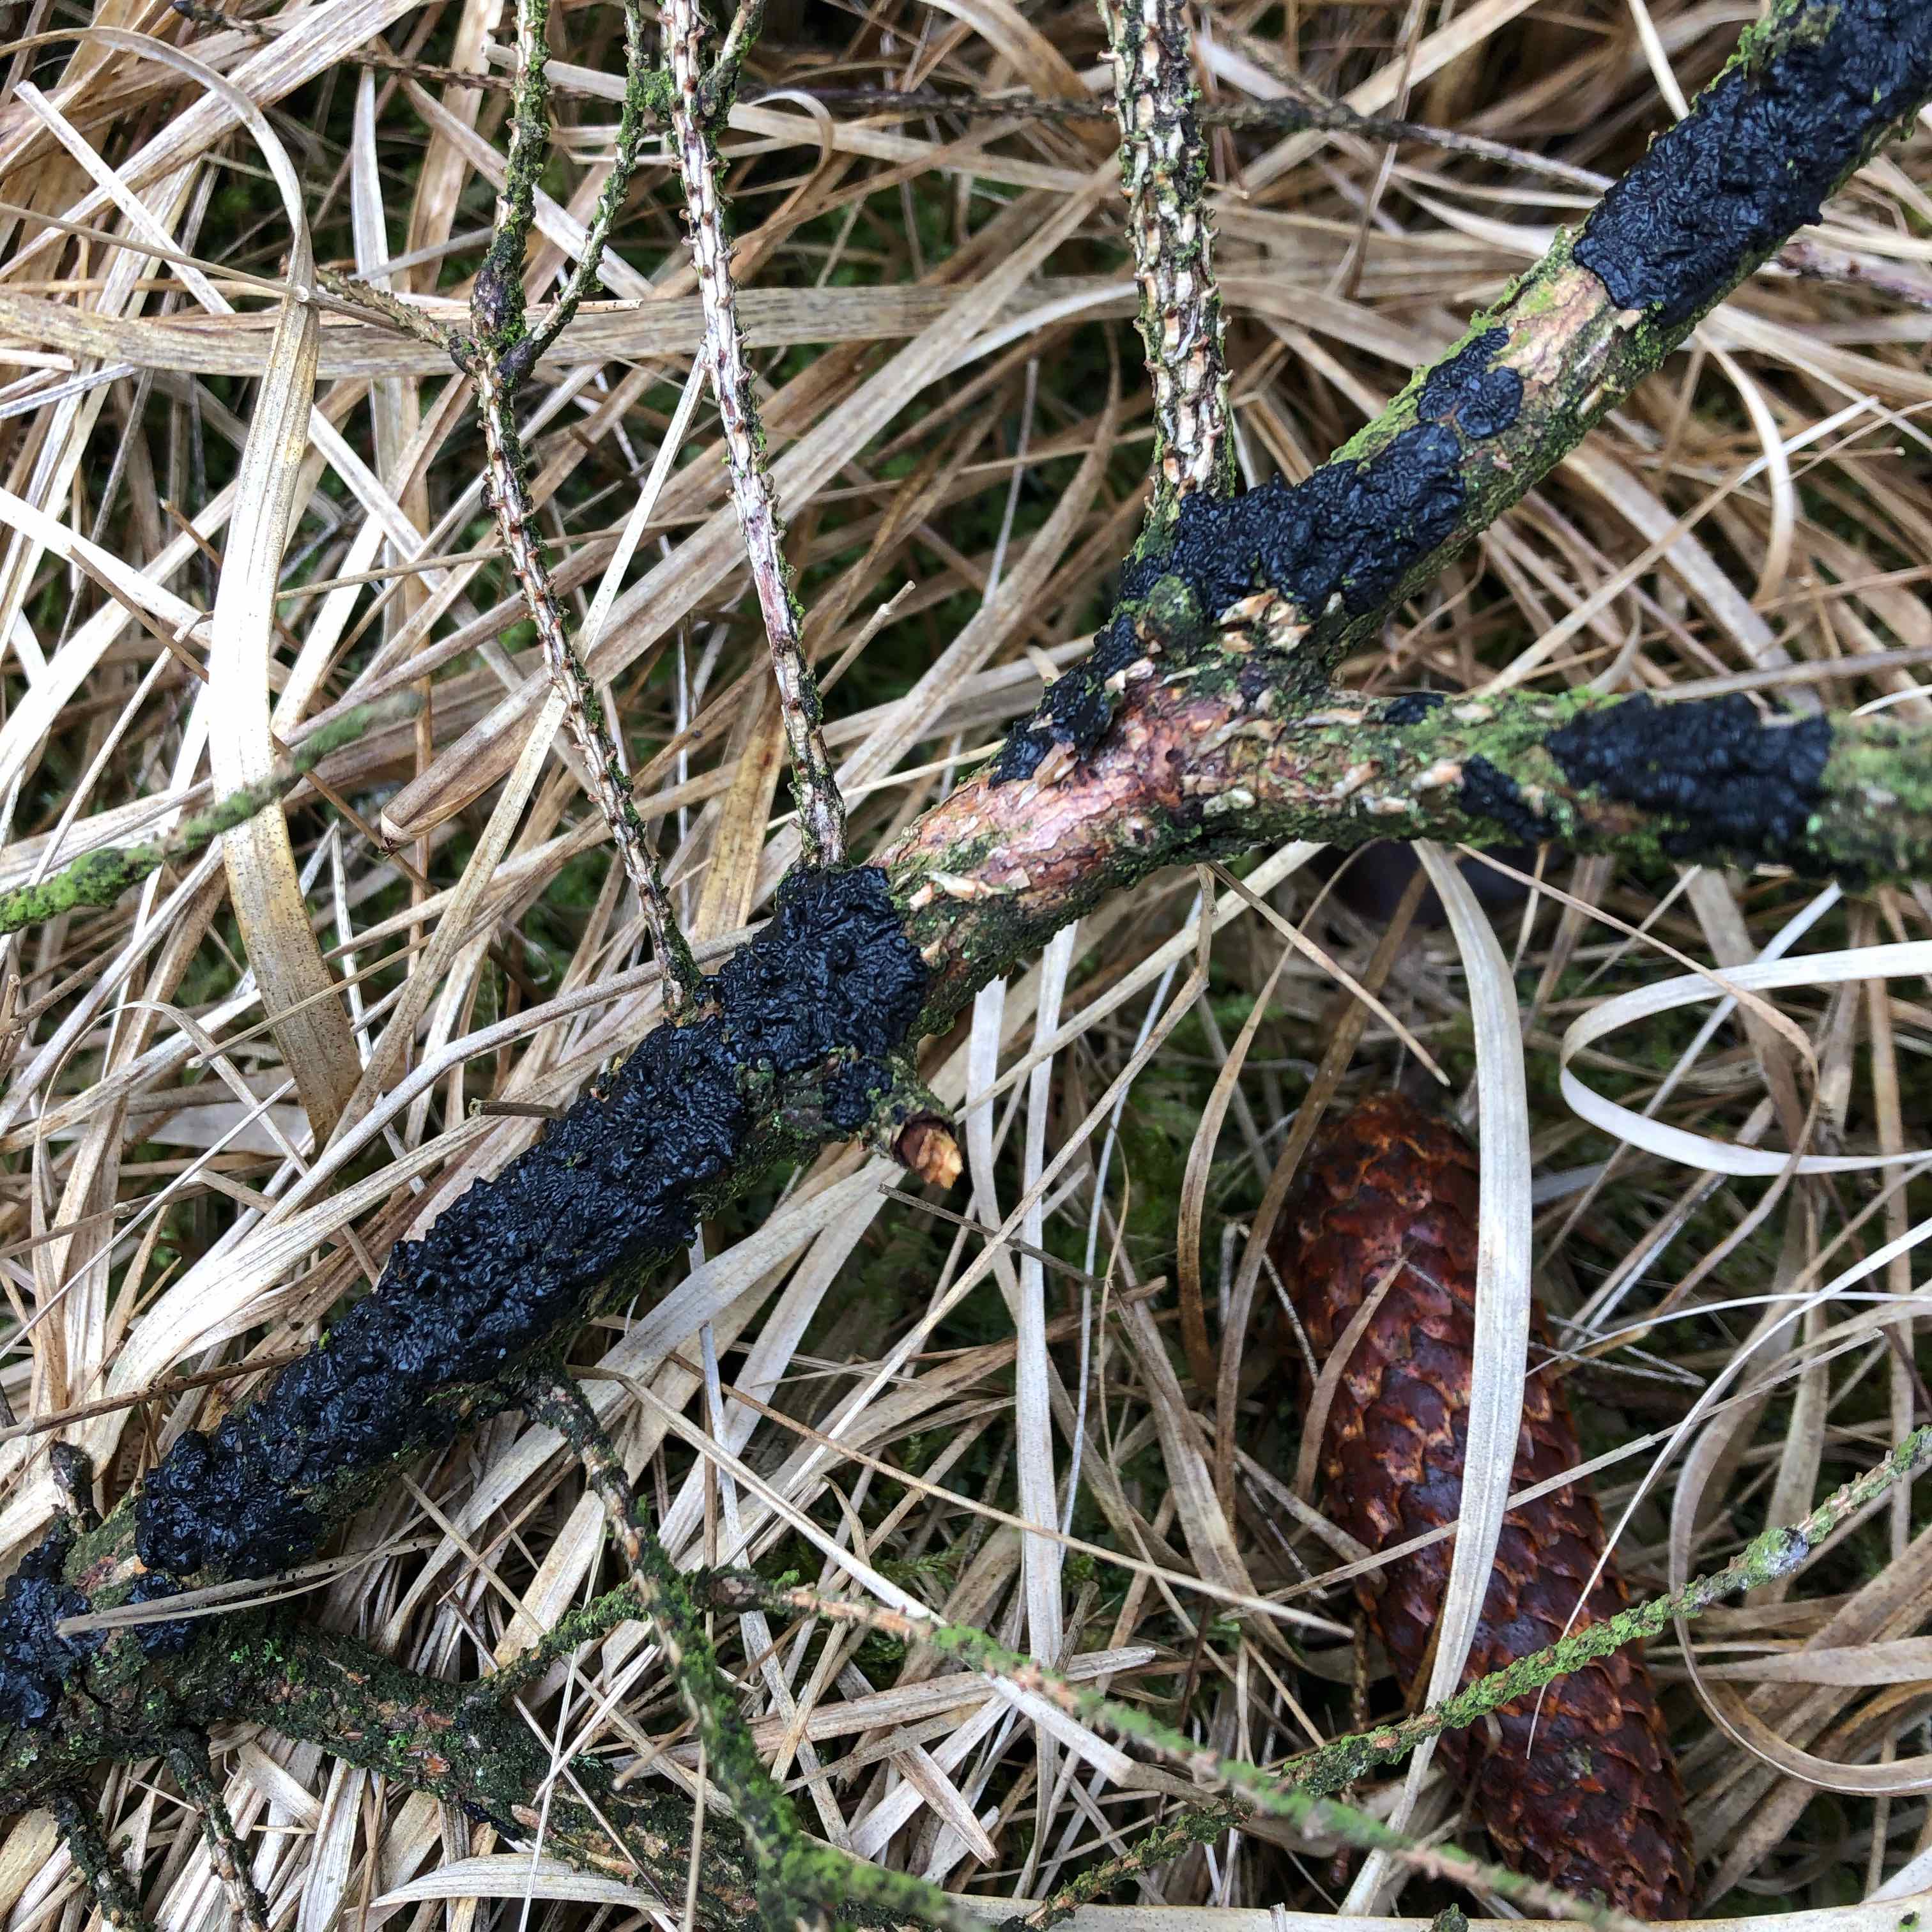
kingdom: Fungi
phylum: Basidiomycota
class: Agaricomycetes
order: Auriculariales
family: Auriculariaceae
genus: Exidia
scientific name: Exidia pithya
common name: gran-bævretop
